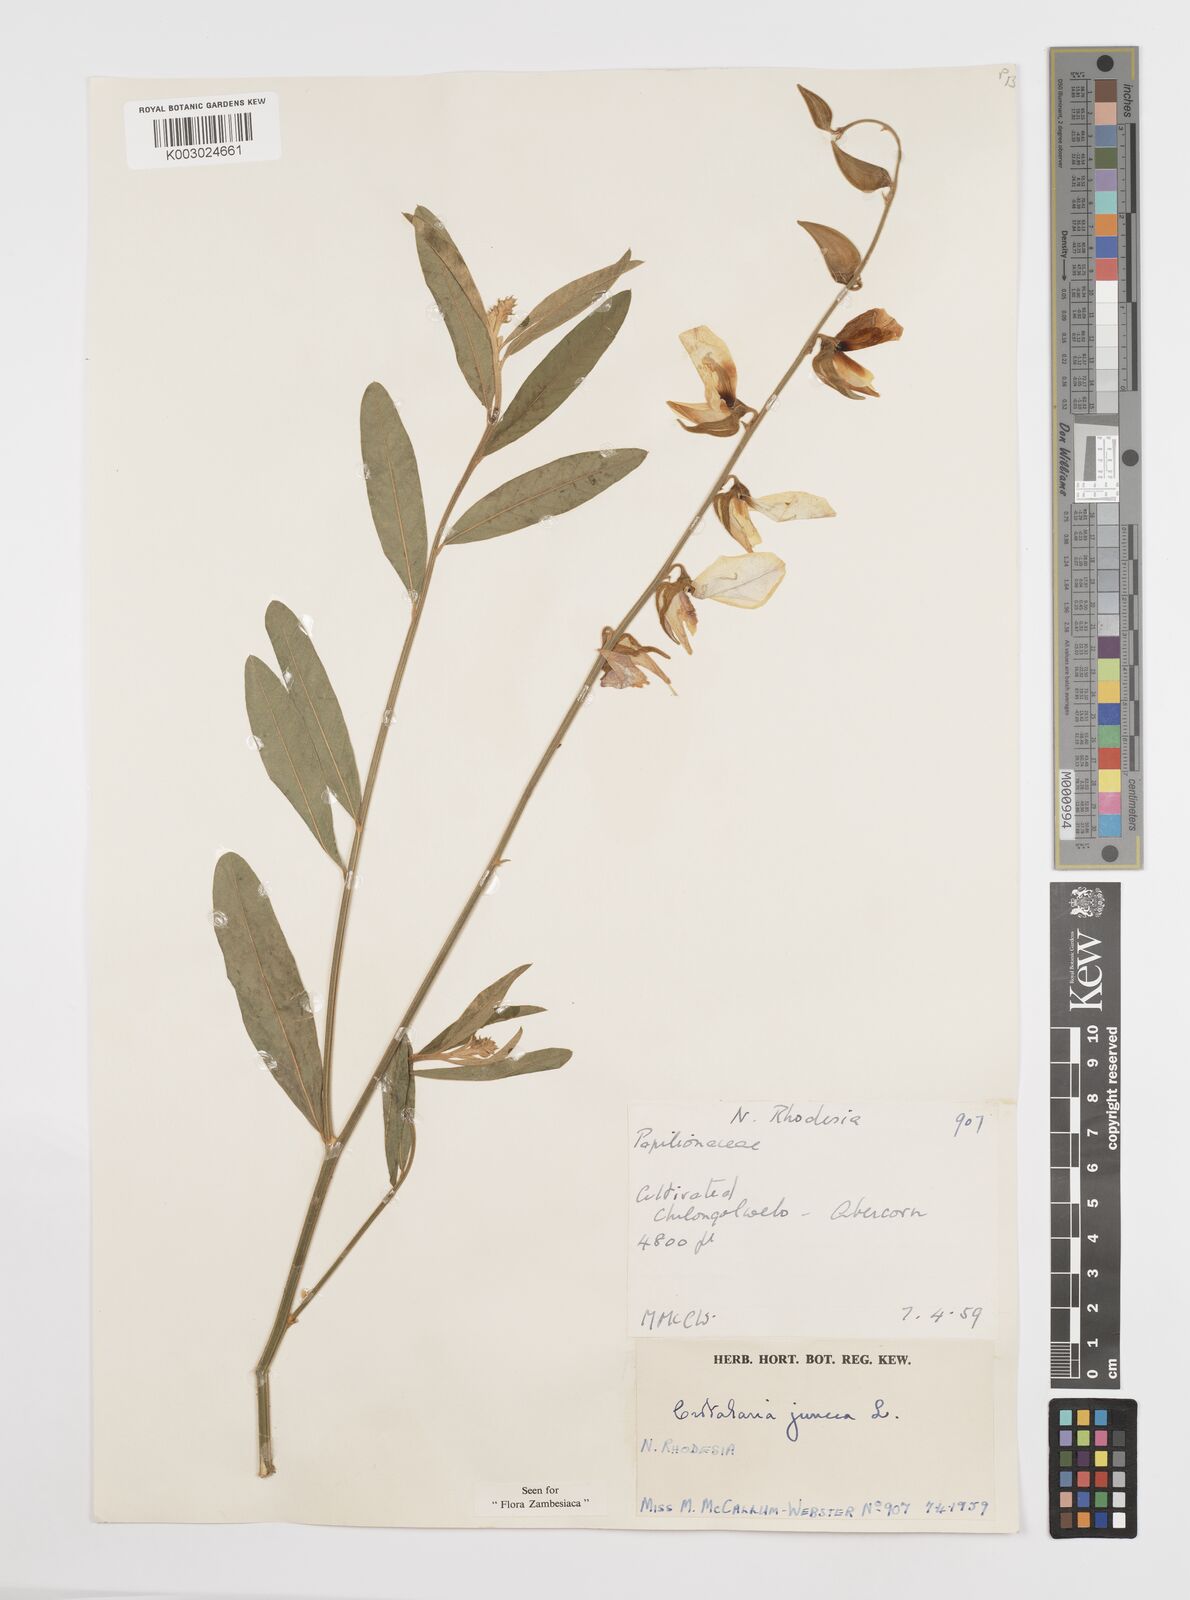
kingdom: Plantae
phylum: Tracheophyta
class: Magnoliopsida
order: Fabales
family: Fabaceae
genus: Crotalaria
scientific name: Crotalaria juncea
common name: Sunn hemp
